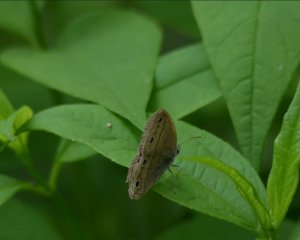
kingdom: Animalia
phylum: Arthropoda
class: Insecta
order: Lepidoptera
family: Nymphalidae
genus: Euptychia
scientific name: Euptychia cymela
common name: Little Wood Satyr
